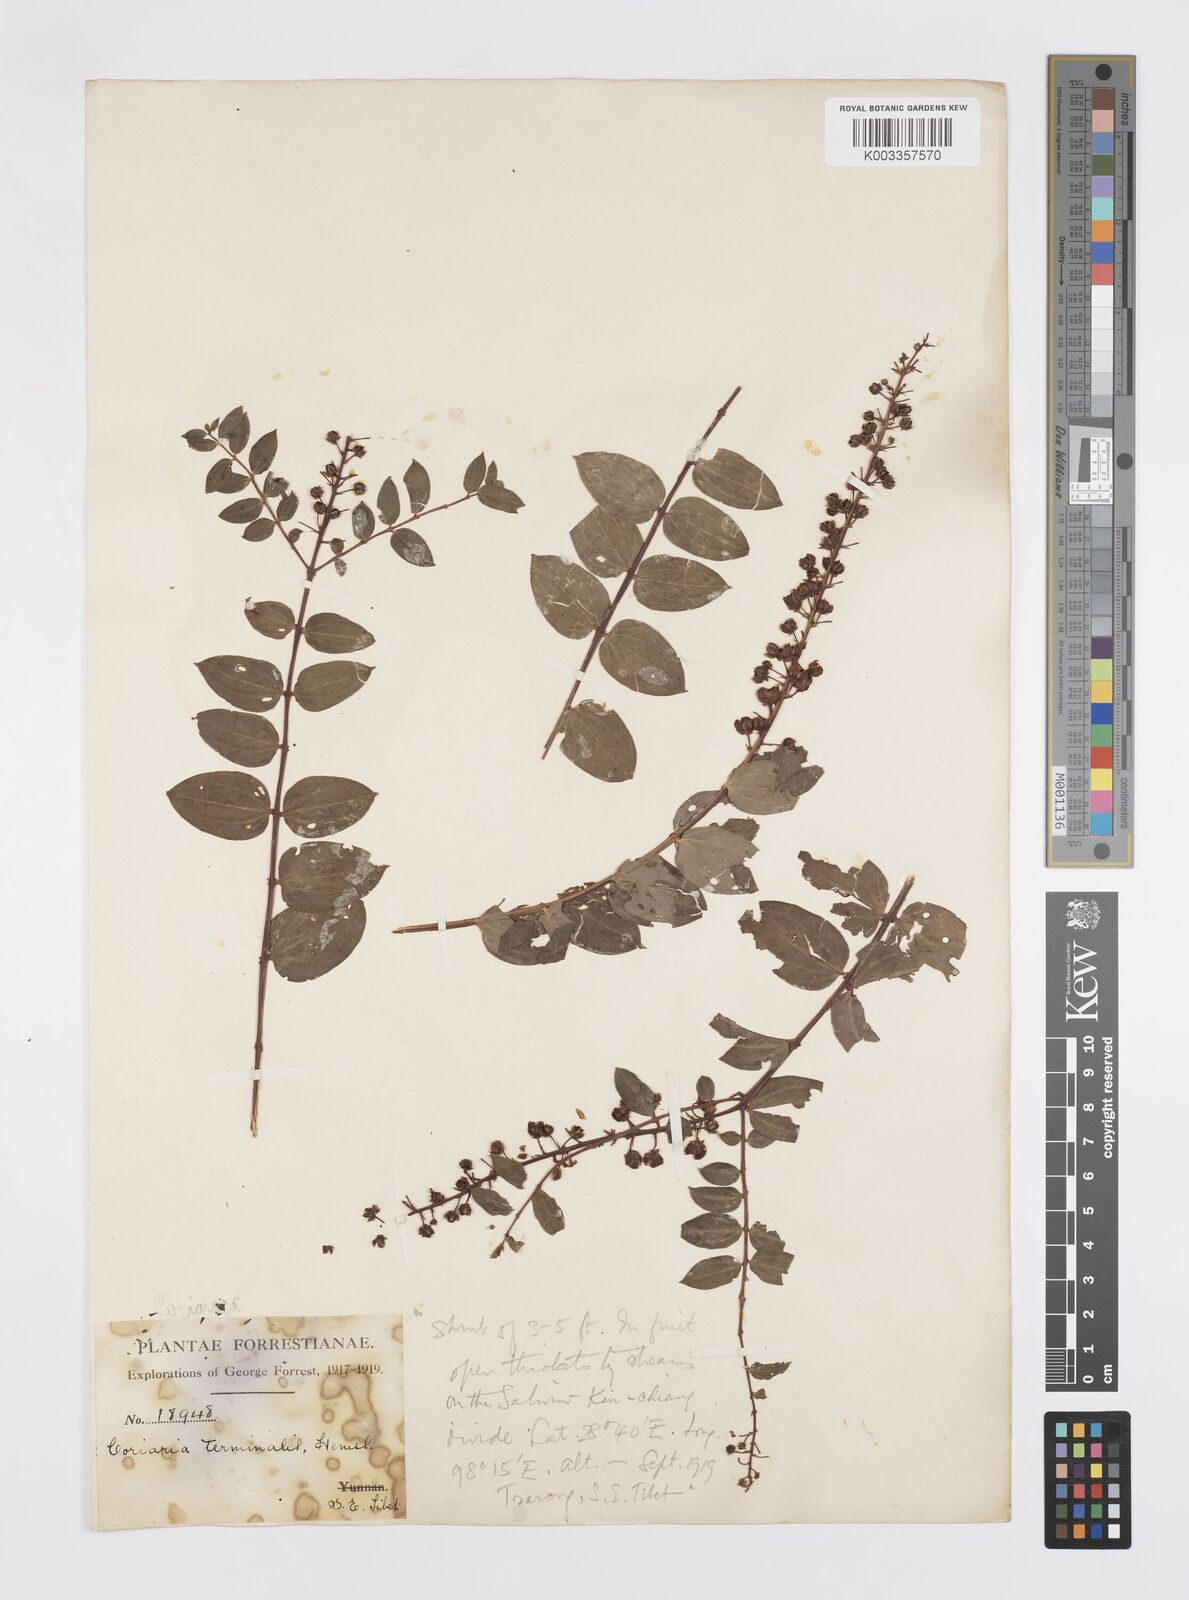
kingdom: Plantae
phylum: Tracheophyta
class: Magnoliopsida
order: Cucurbitales
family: Coriariaceae
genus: Coriaria
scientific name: Coriaria terminalis
